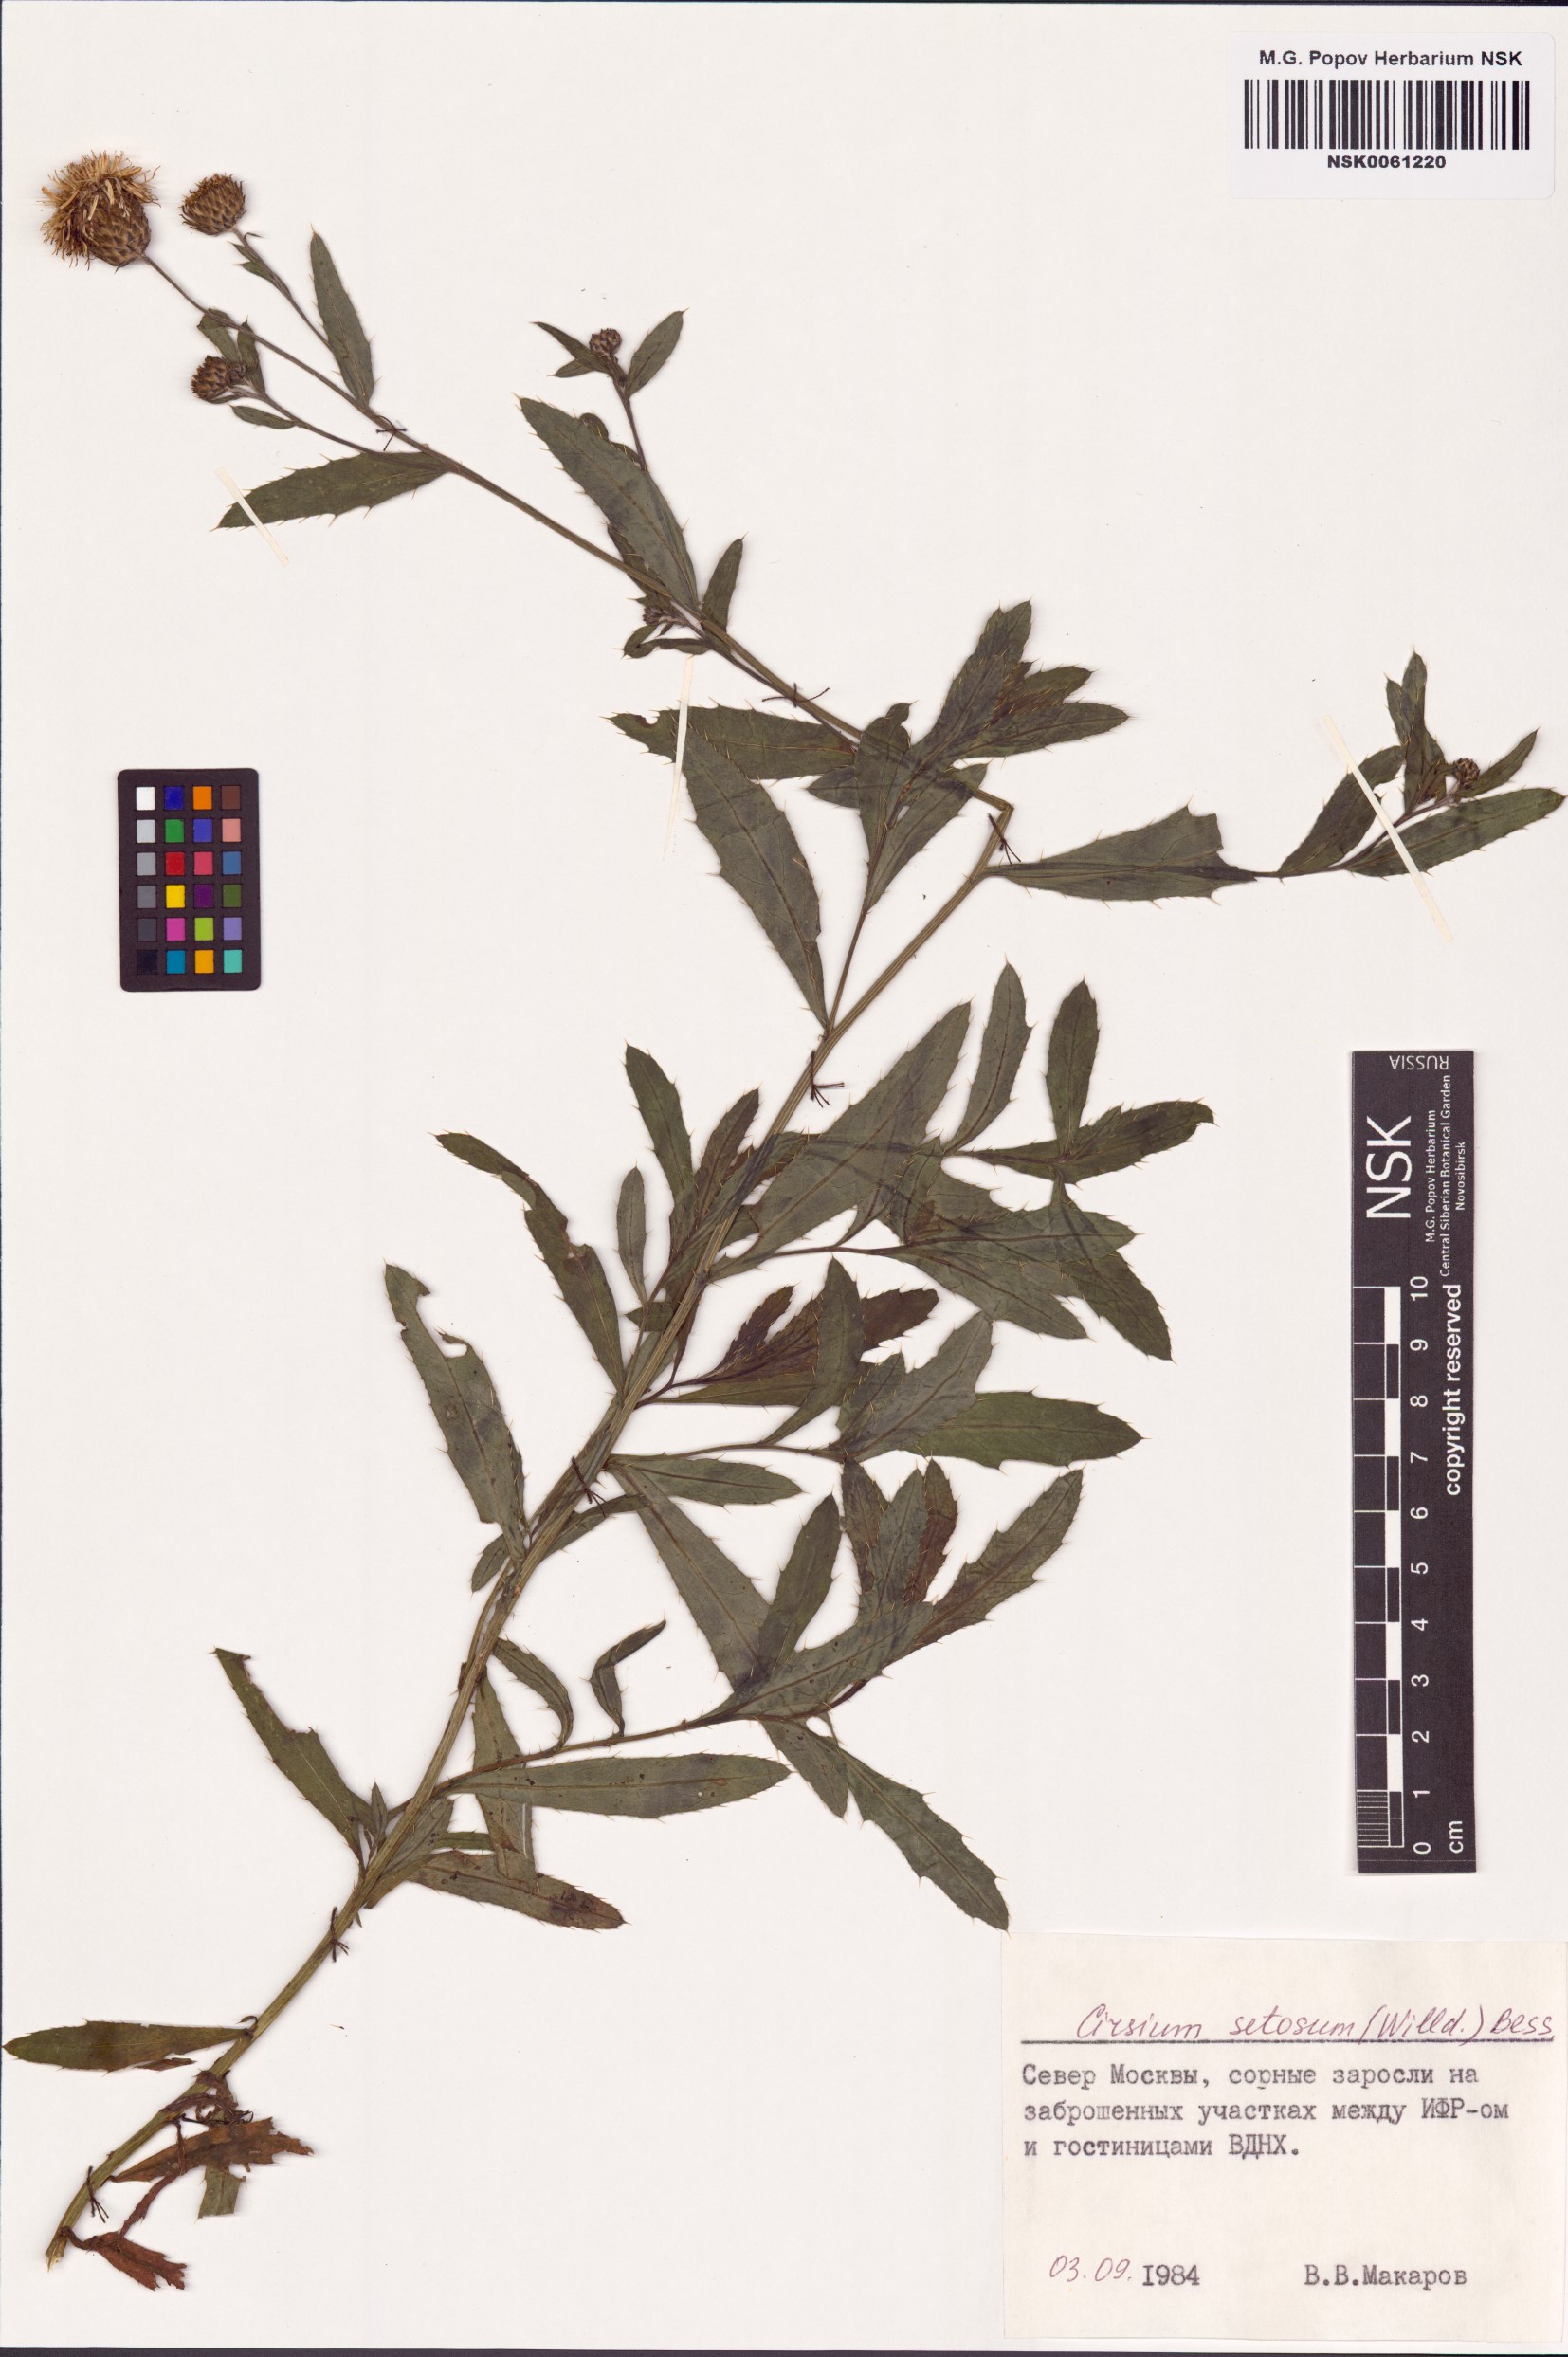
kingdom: Plantae
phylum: Tracheophyta
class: Magnoliopsida
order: Asterales
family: Asteraceae
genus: Cirsium
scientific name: Cirsium arvense
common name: Creeping thistle
